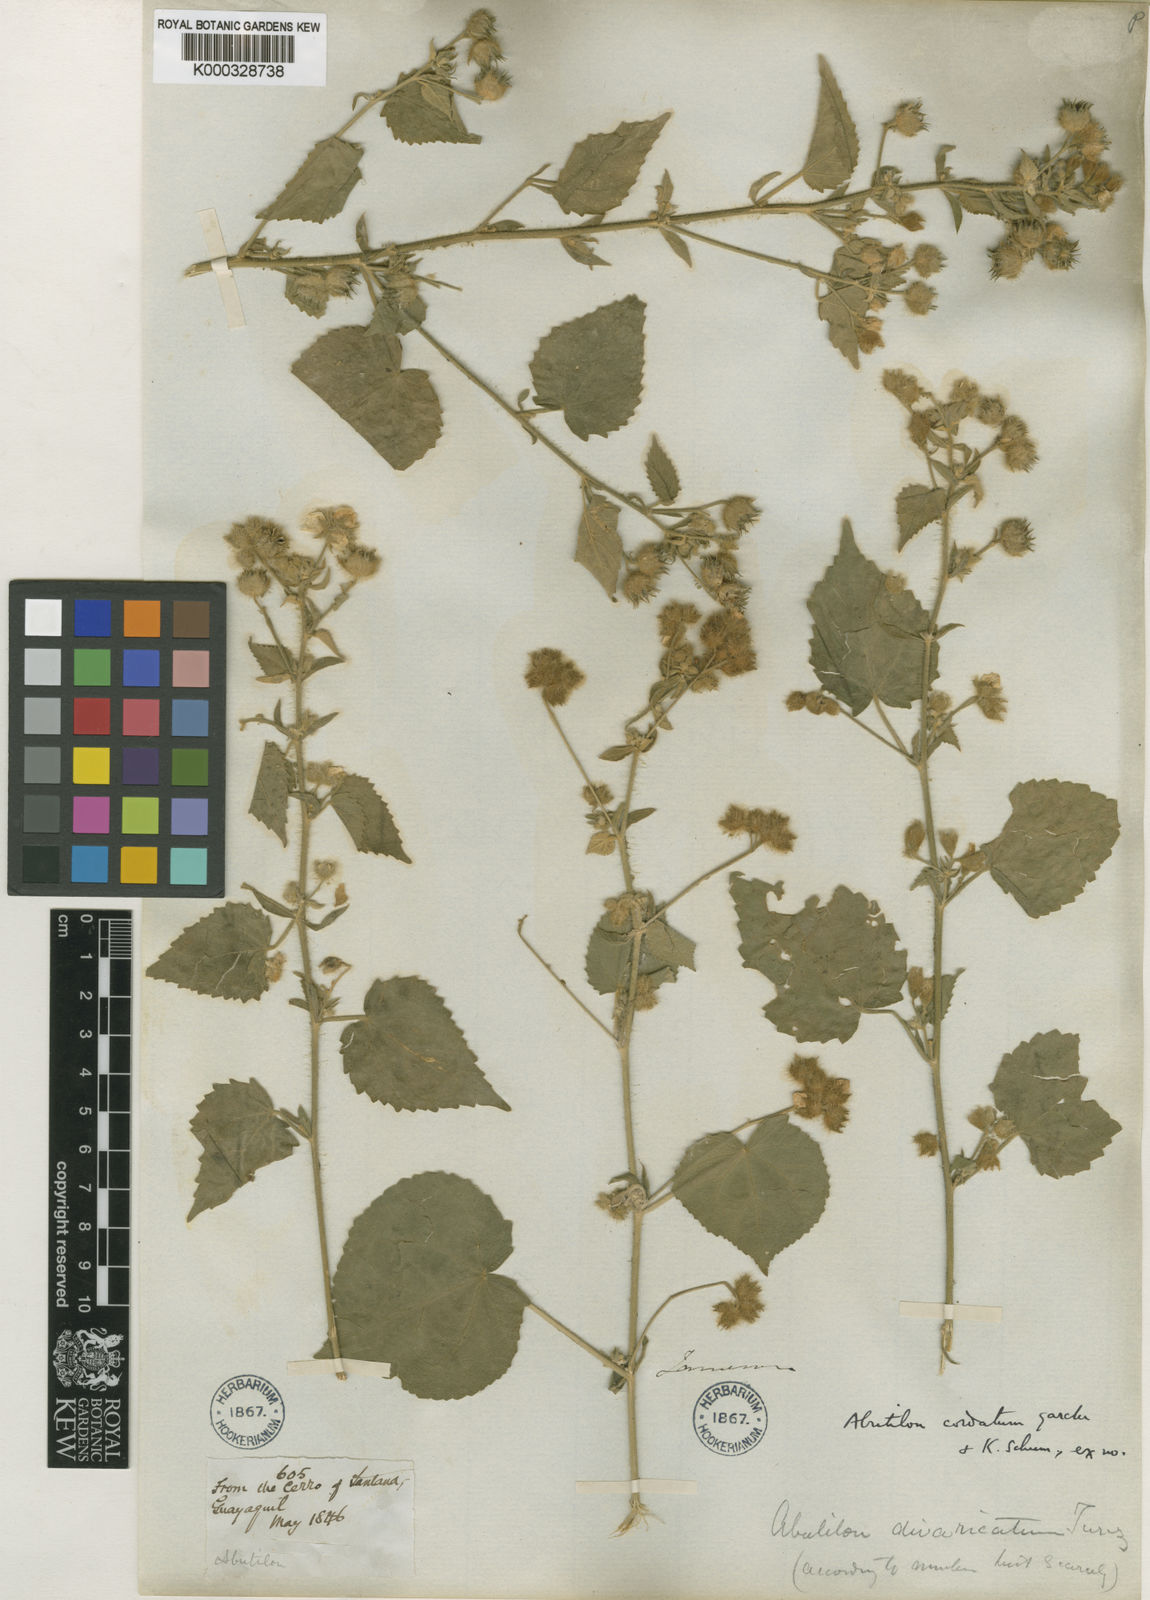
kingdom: Plantae
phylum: Tracheophyta
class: Magnoliopsida
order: Malvales
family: Malvaceae
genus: Abutilon
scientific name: Abutilon dispermum
